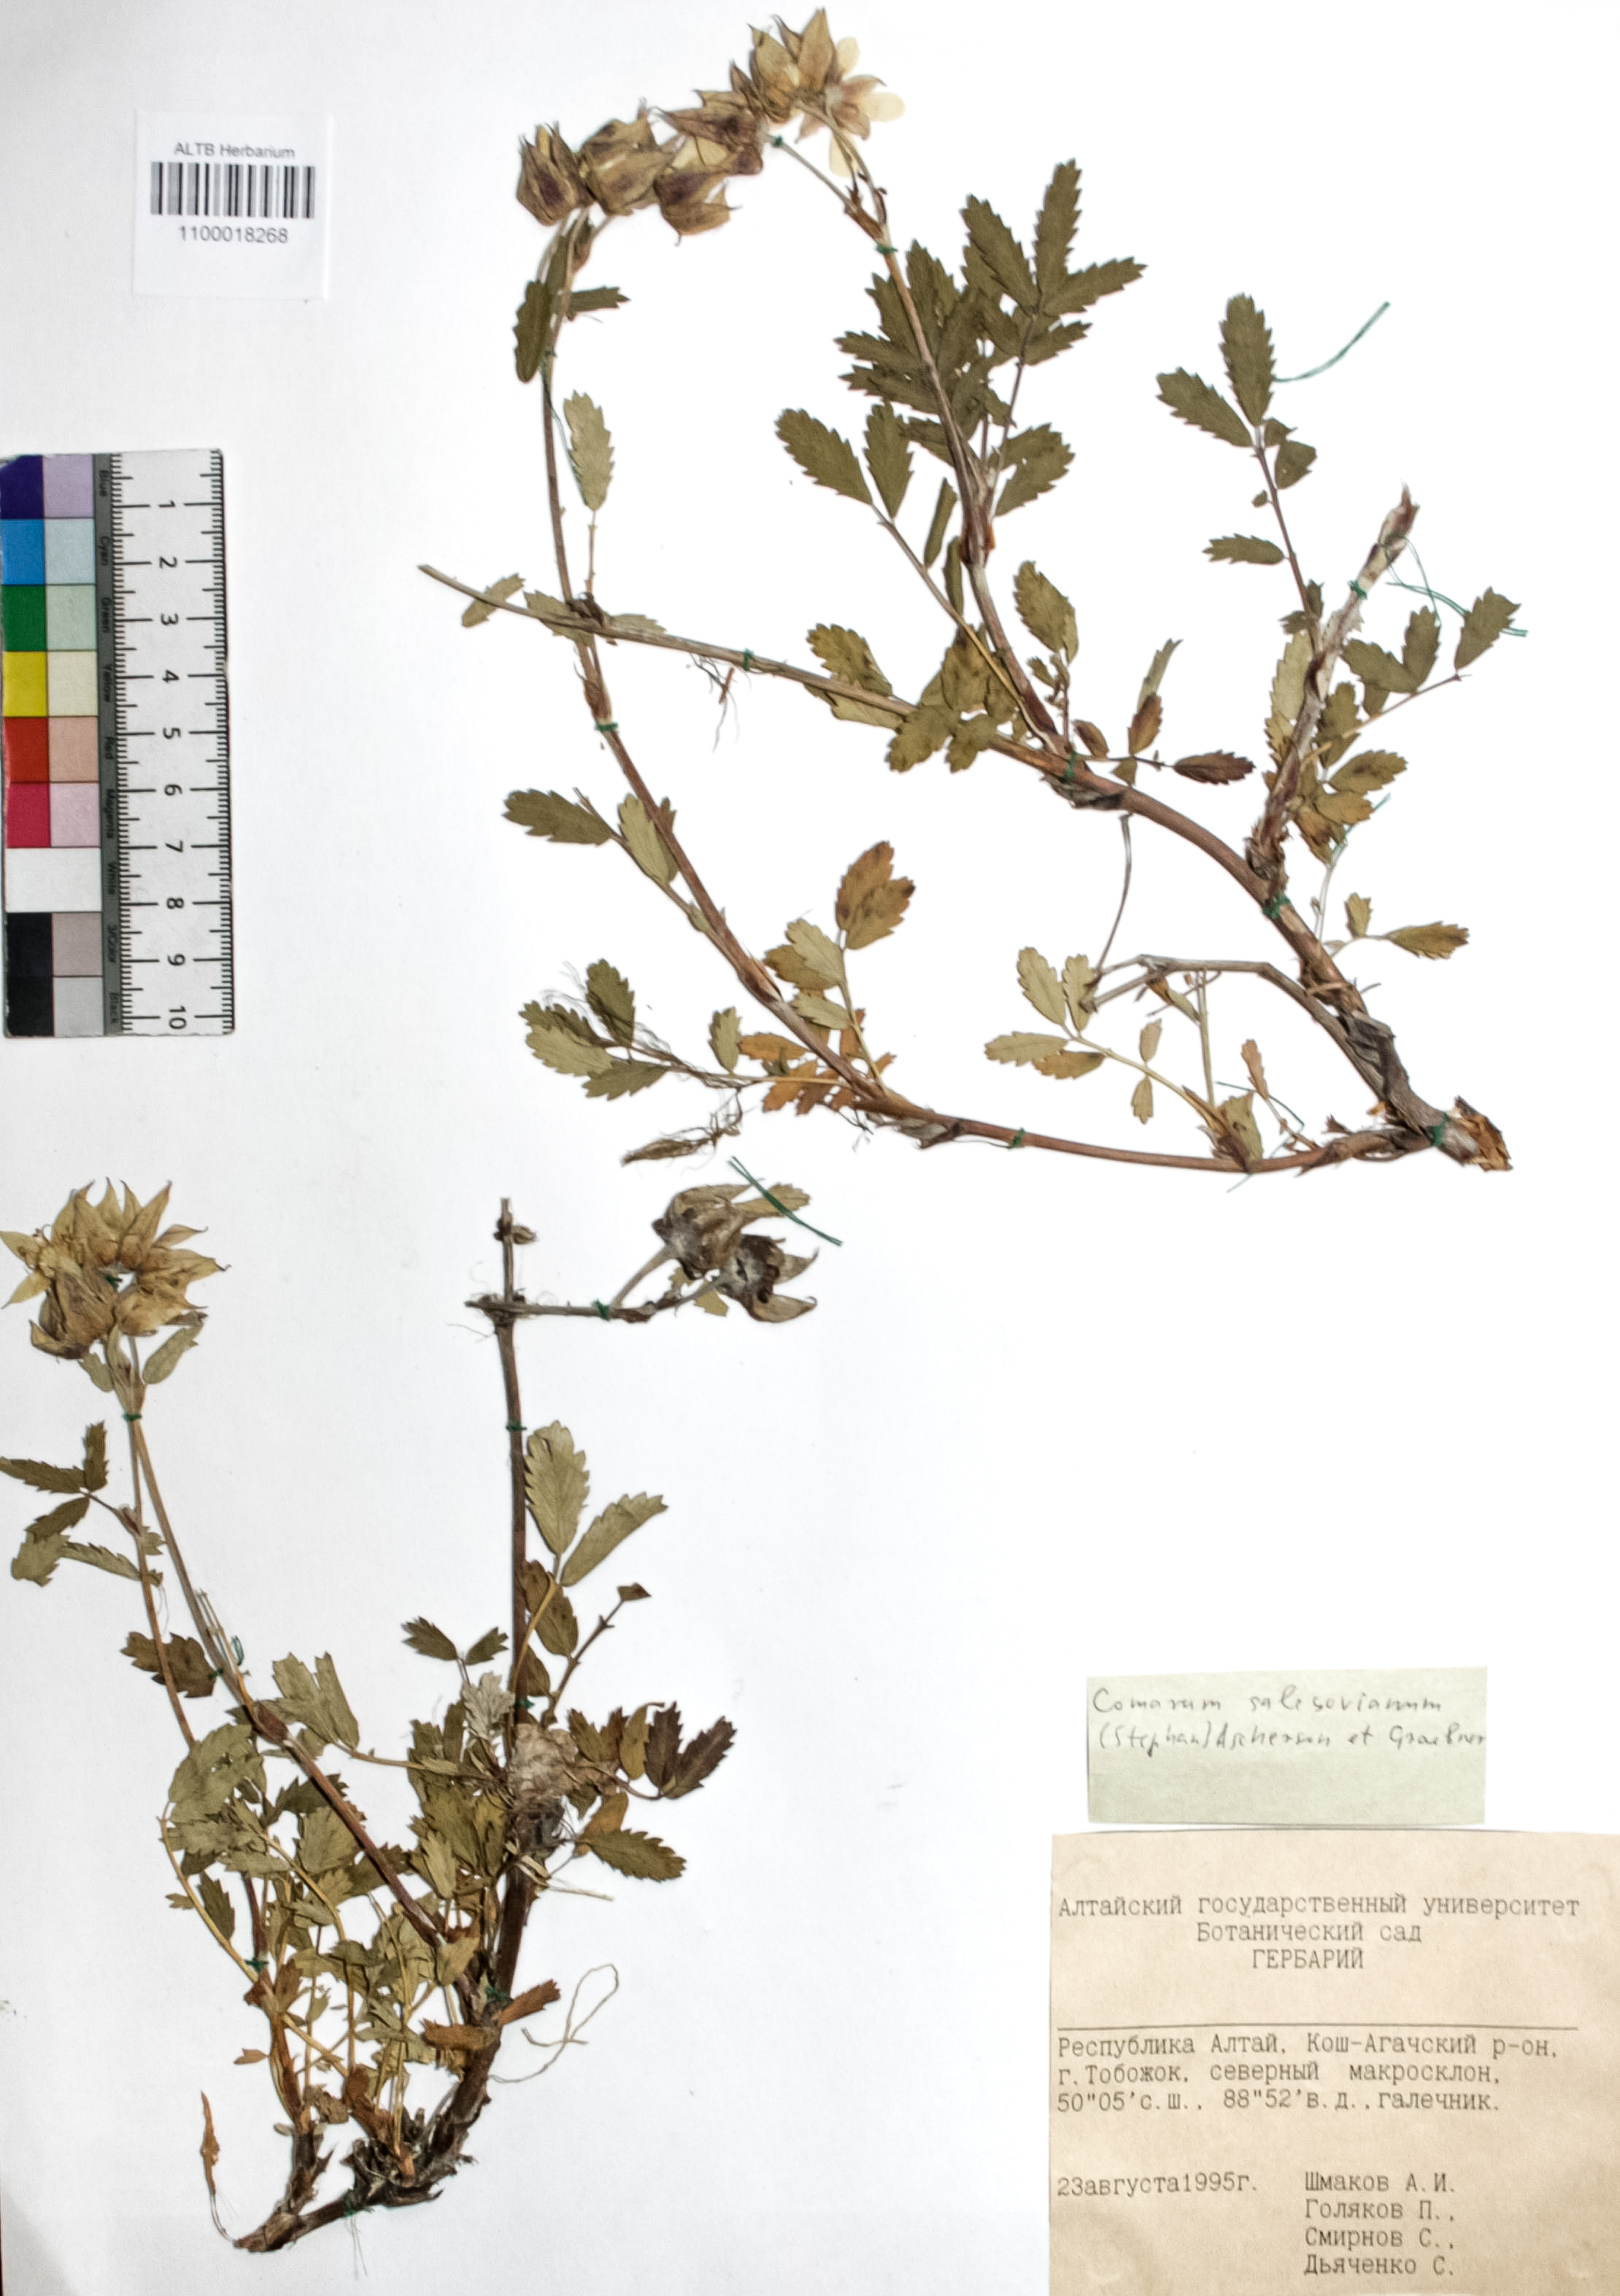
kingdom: Plantae
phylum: Tracheophyta
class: Magnoliopsida
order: Rosales
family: Rosaceae
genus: Farinopsis
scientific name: Farinopsis salesoviana
